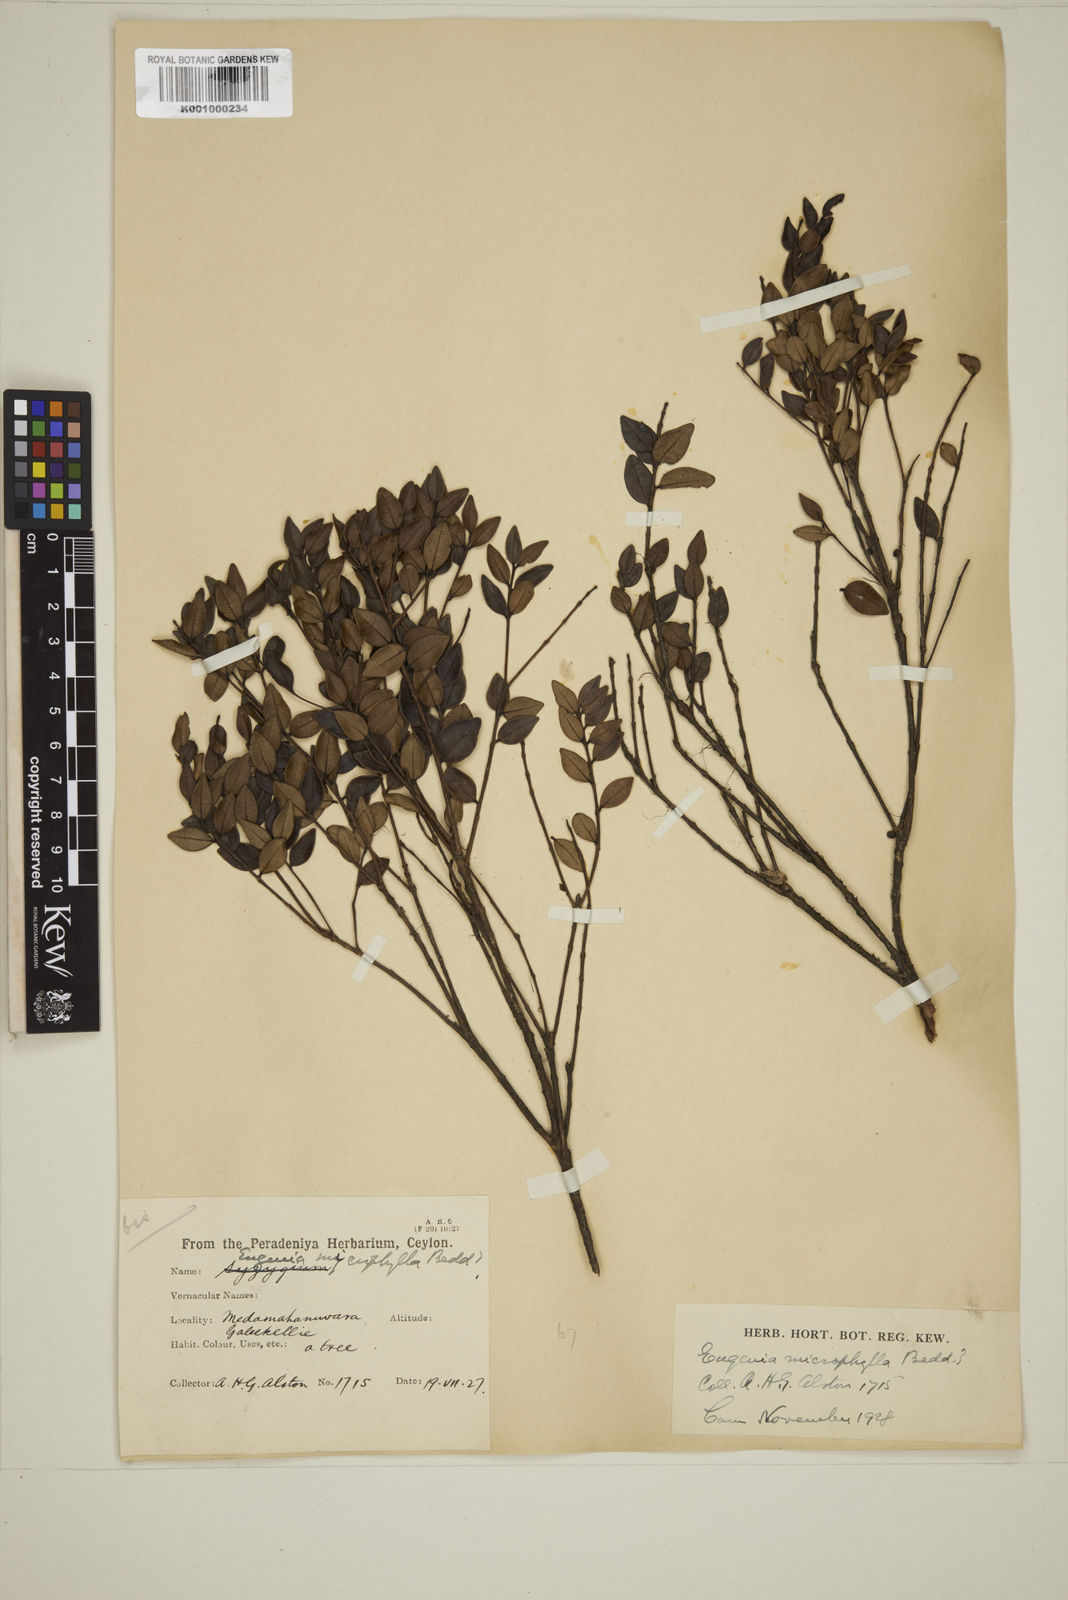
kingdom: Plantae
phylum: Tracheophyta
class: Magnoliopsida
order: Myrtales
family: Myrtaceae
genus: Eugenia
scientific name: Eugenia asperifolia
